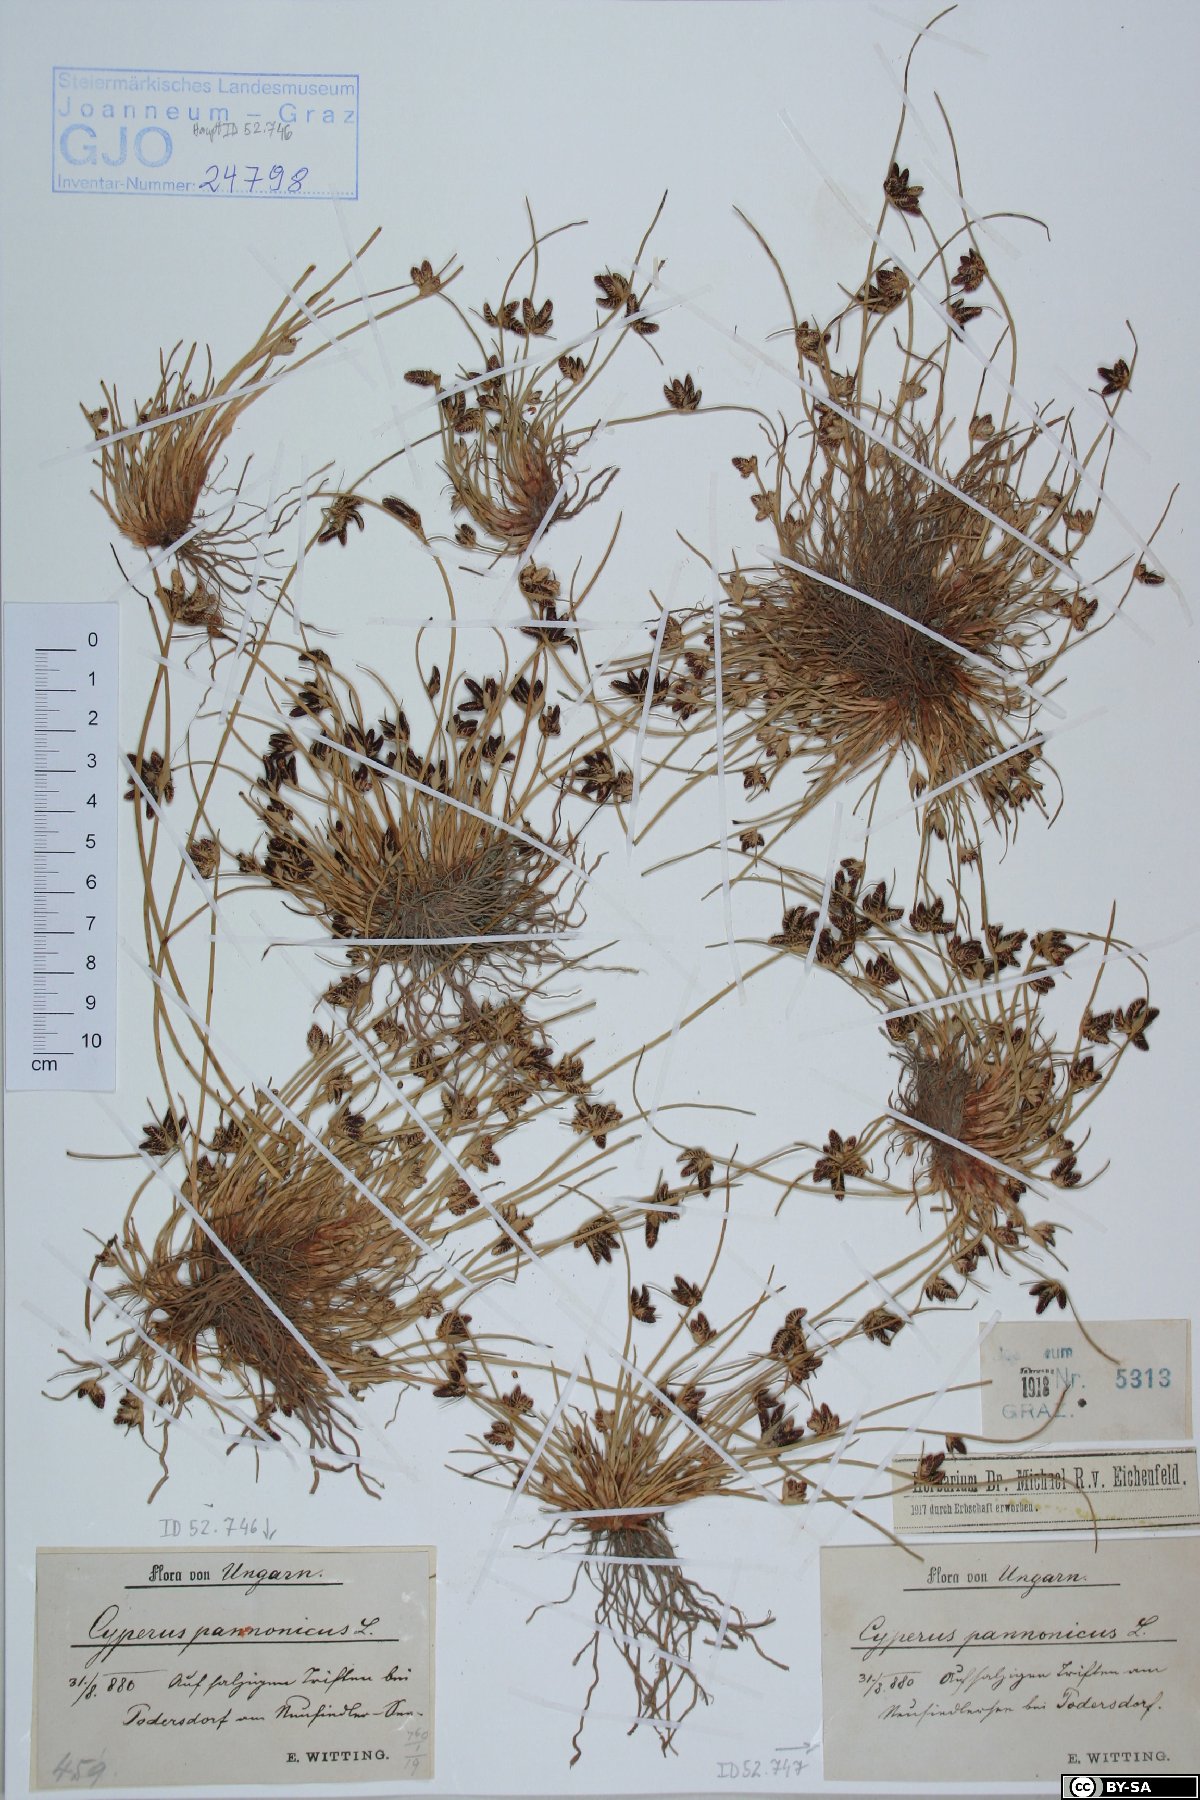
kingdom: Plantae
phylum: Tracheophyta
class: Liliopsida
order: Poales
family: Cyperaceae
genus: Cyperus
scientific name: Cyperus pannonicus
